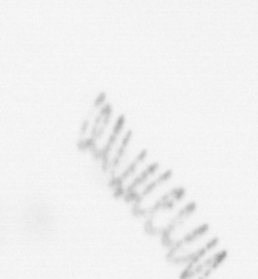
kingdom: Chromista
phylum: Ochrophyta
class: Bacillariophyceae
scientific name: Bacillariophyceae
